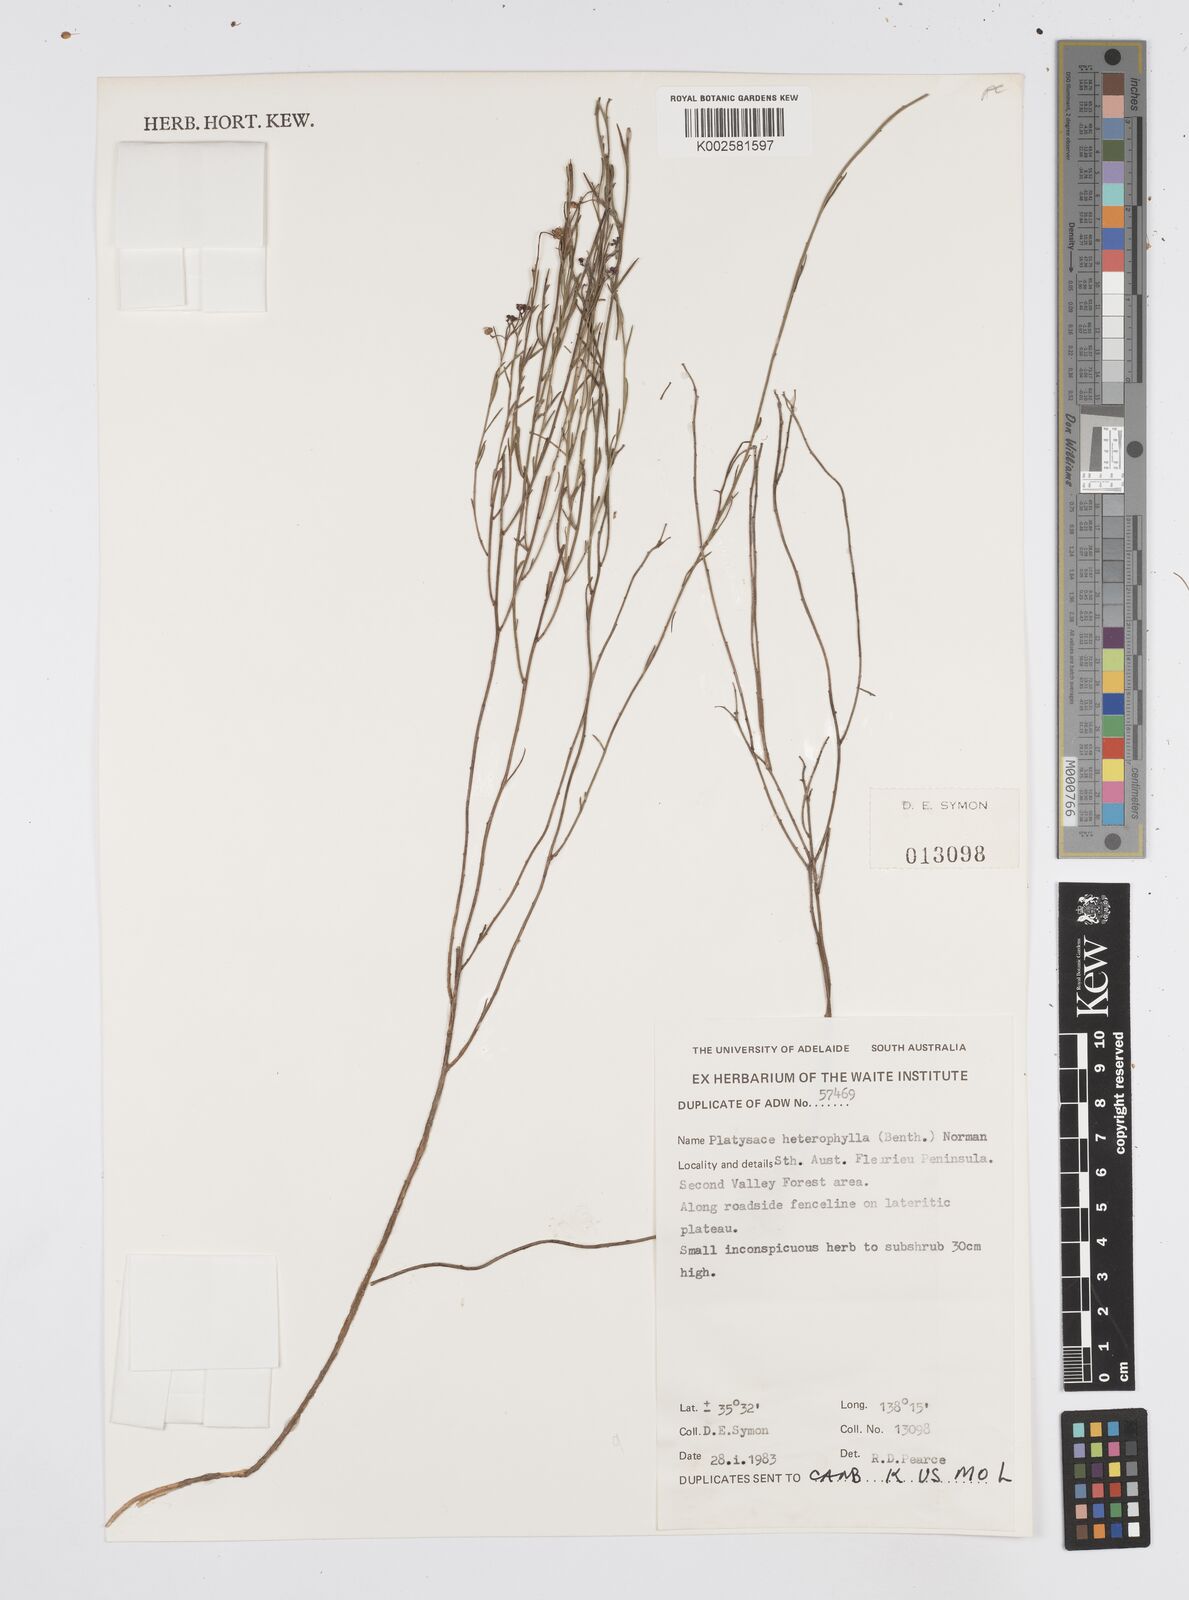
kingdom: Plantae
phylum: Tracheophyta
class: Magnoliopsida
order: Apiales
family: Apiaceae
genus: Platysace
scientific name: Platysace heterophylla
